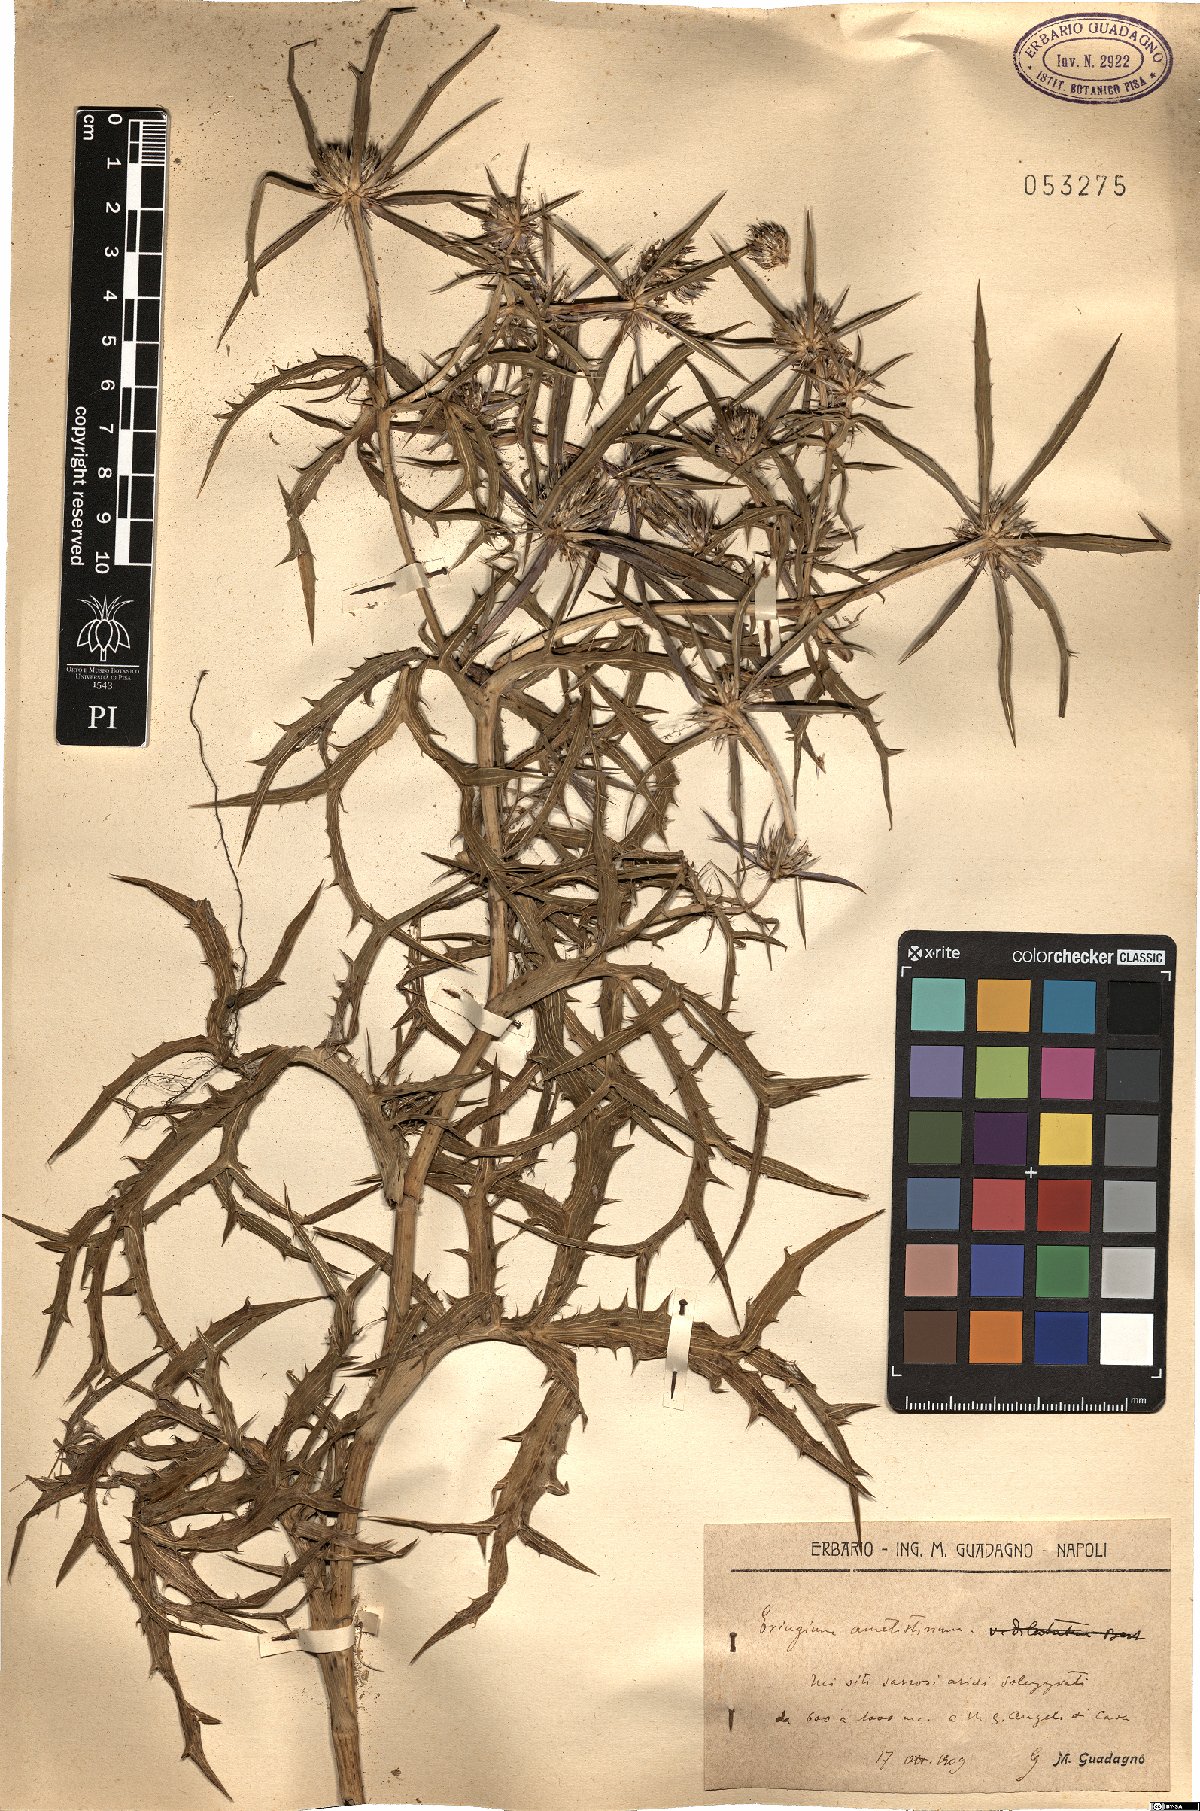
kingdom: Plantae
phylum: Tracheophyta
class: Magnoliopsida
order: Apiales
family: Apiaceae
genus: Eryngium
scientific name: Eryngium amethystinum
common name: Amethyst eryngo
